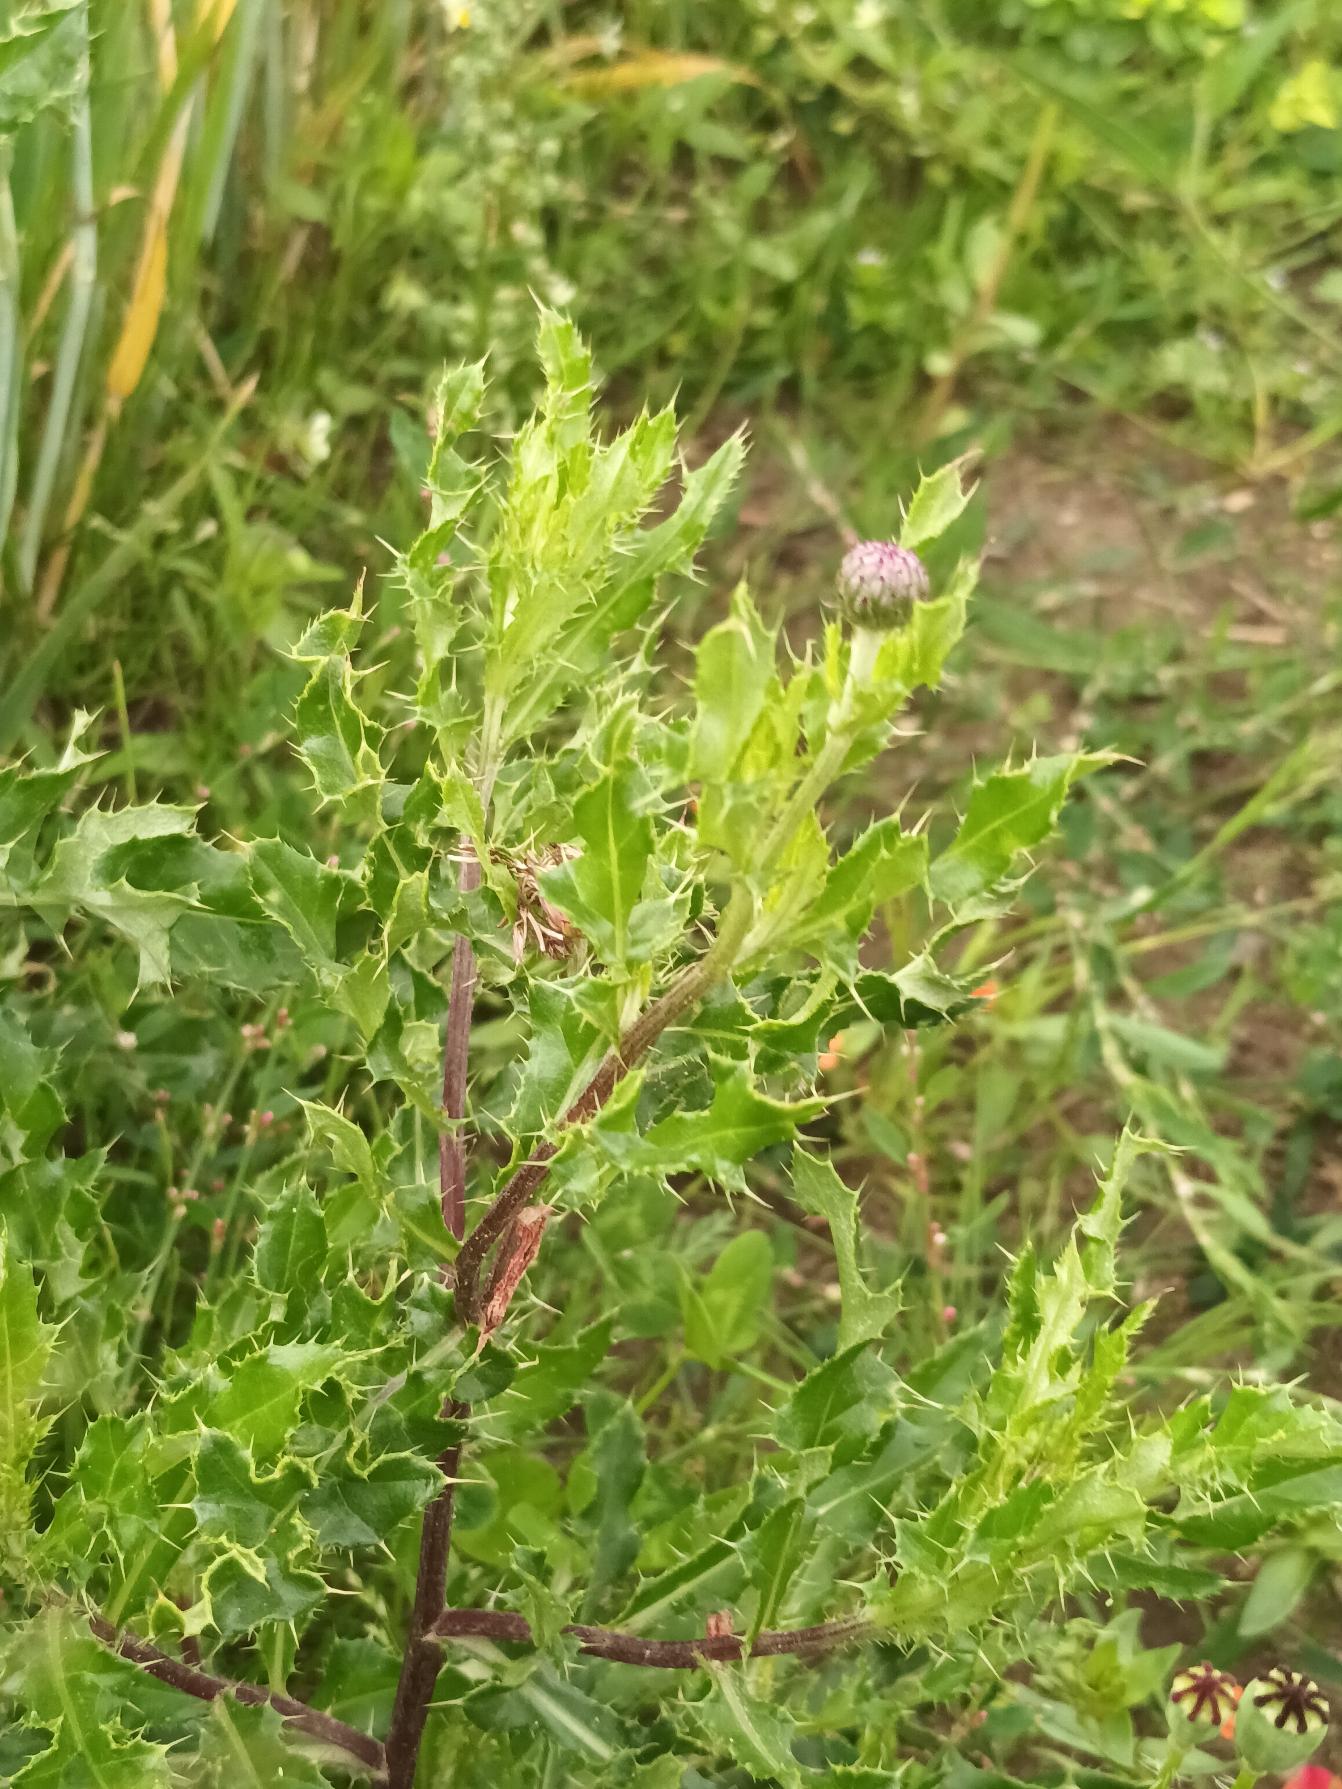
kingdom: Plantae
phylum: Tracheophyta
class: Magnoliopsida
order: Asterales
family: Asteraceae
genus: Cirsium
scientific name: Cirsium arvense
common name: Ager-tidsel
